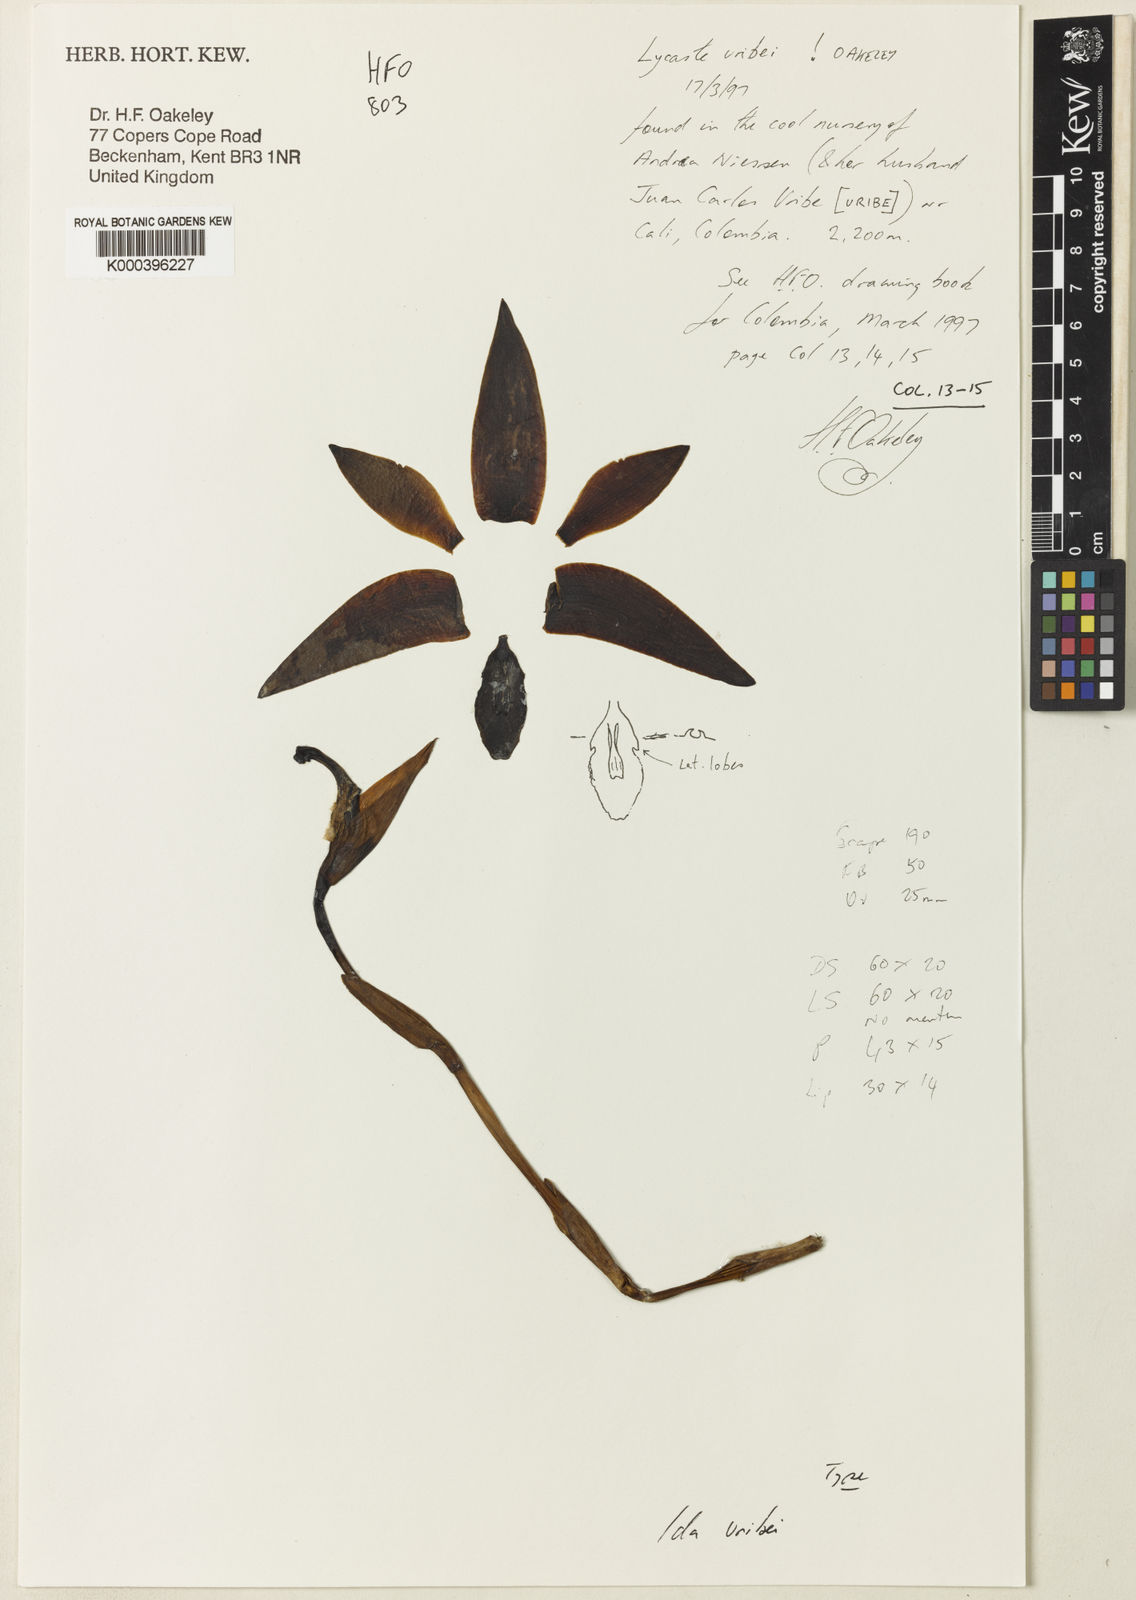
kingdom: Plantae
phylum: Tracheophyta
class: Liliopsida
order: Asparagales
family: Orchidaceae
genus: Ida
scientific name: Ida uribei
